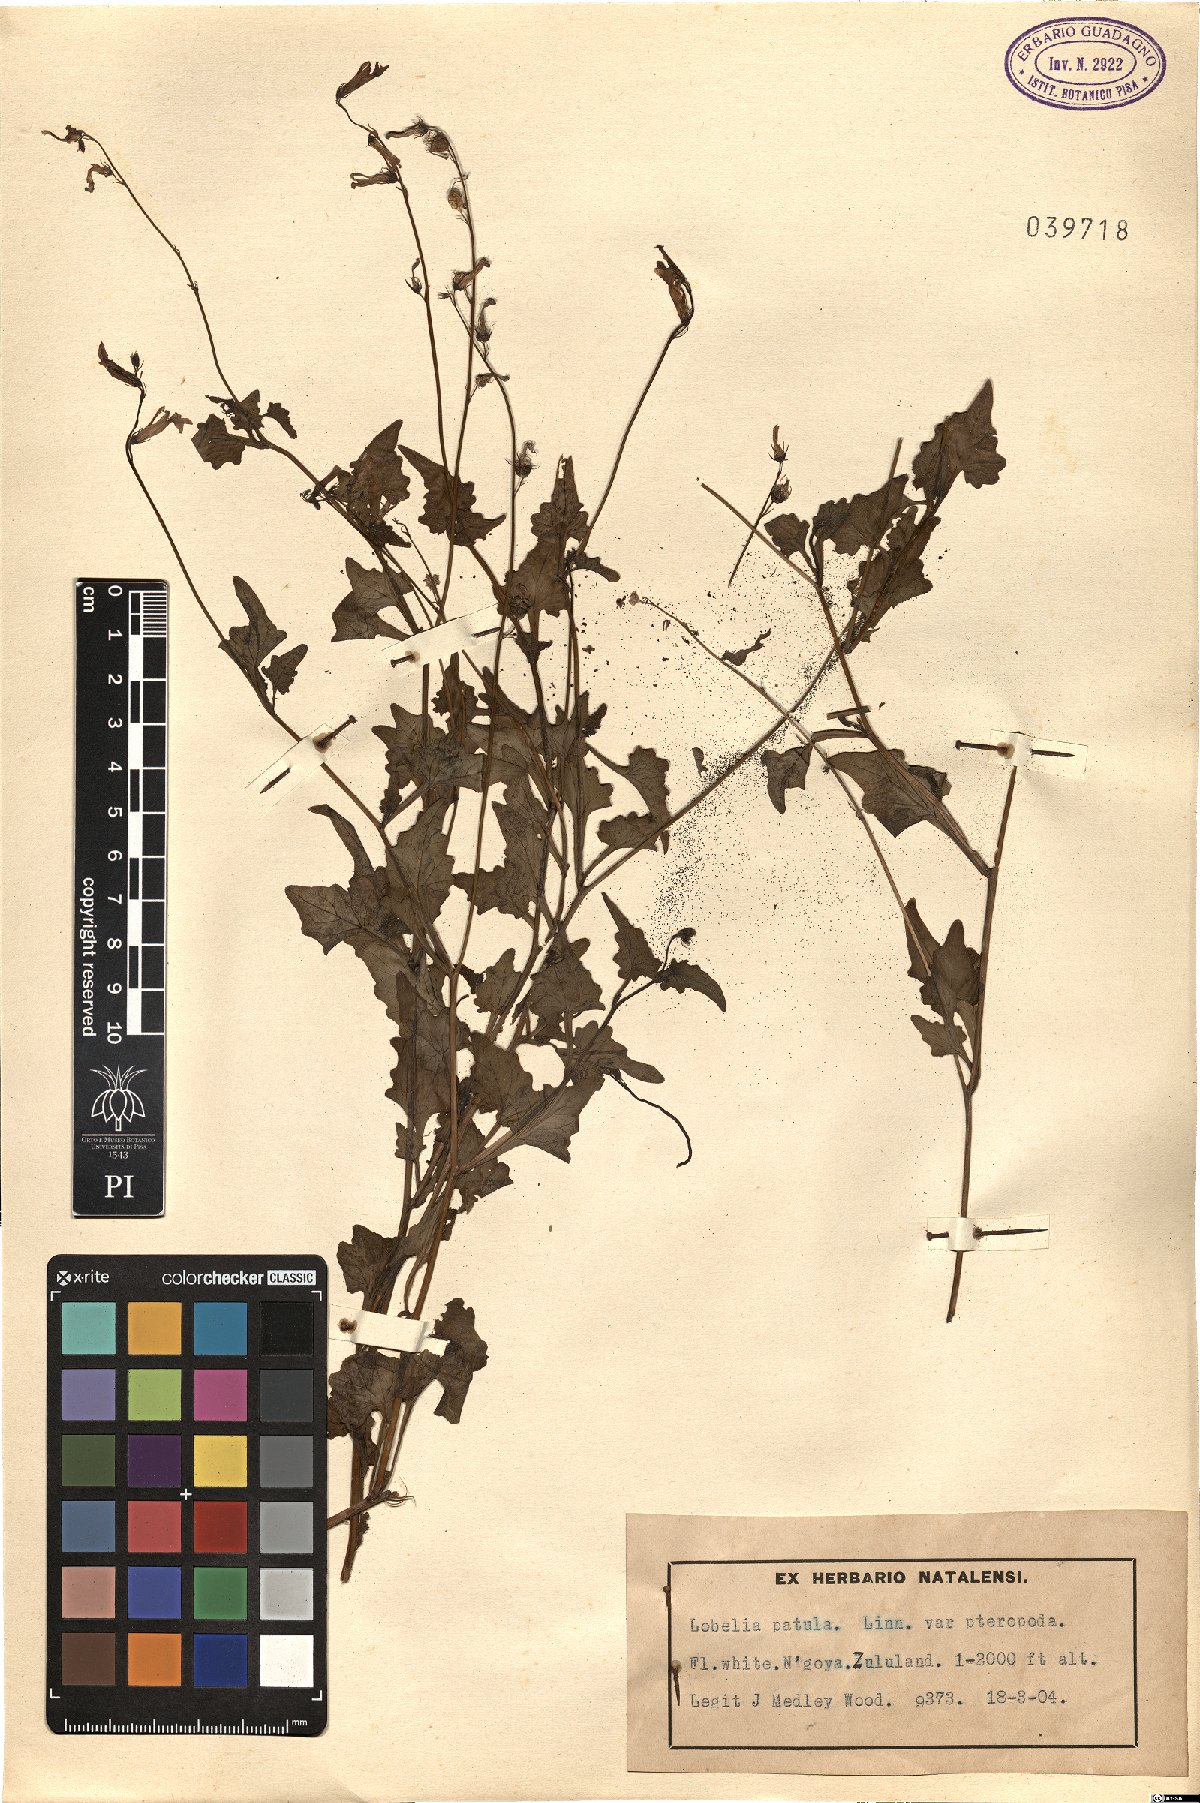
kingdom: Plantae
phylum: Tracheophyta
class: Magnoliopsida
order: Asterales
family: Campanulaceae
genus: Lobelia
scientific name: Lobelia pteropoda
